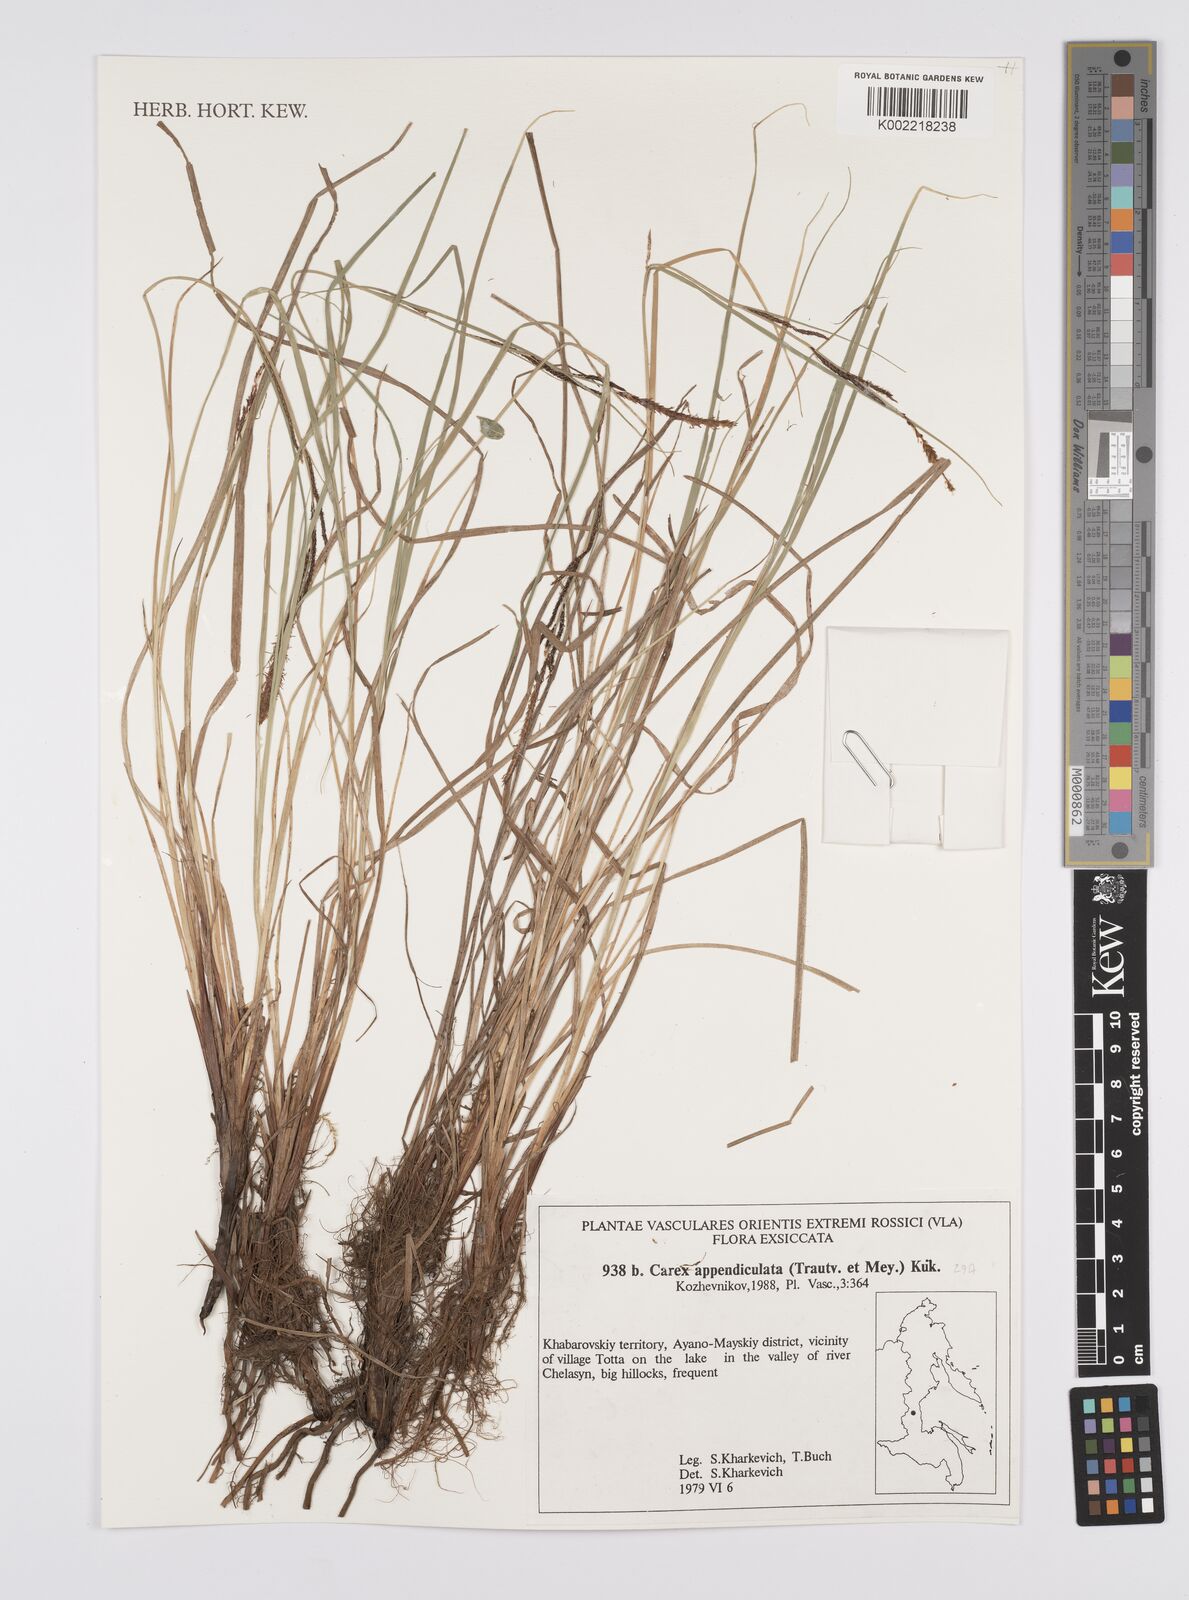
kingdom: Plantae
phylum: Tracheophyta
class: Liliopsida
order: Poales
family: Cyperaceae
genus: Carex
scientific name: Carex appendiculata
